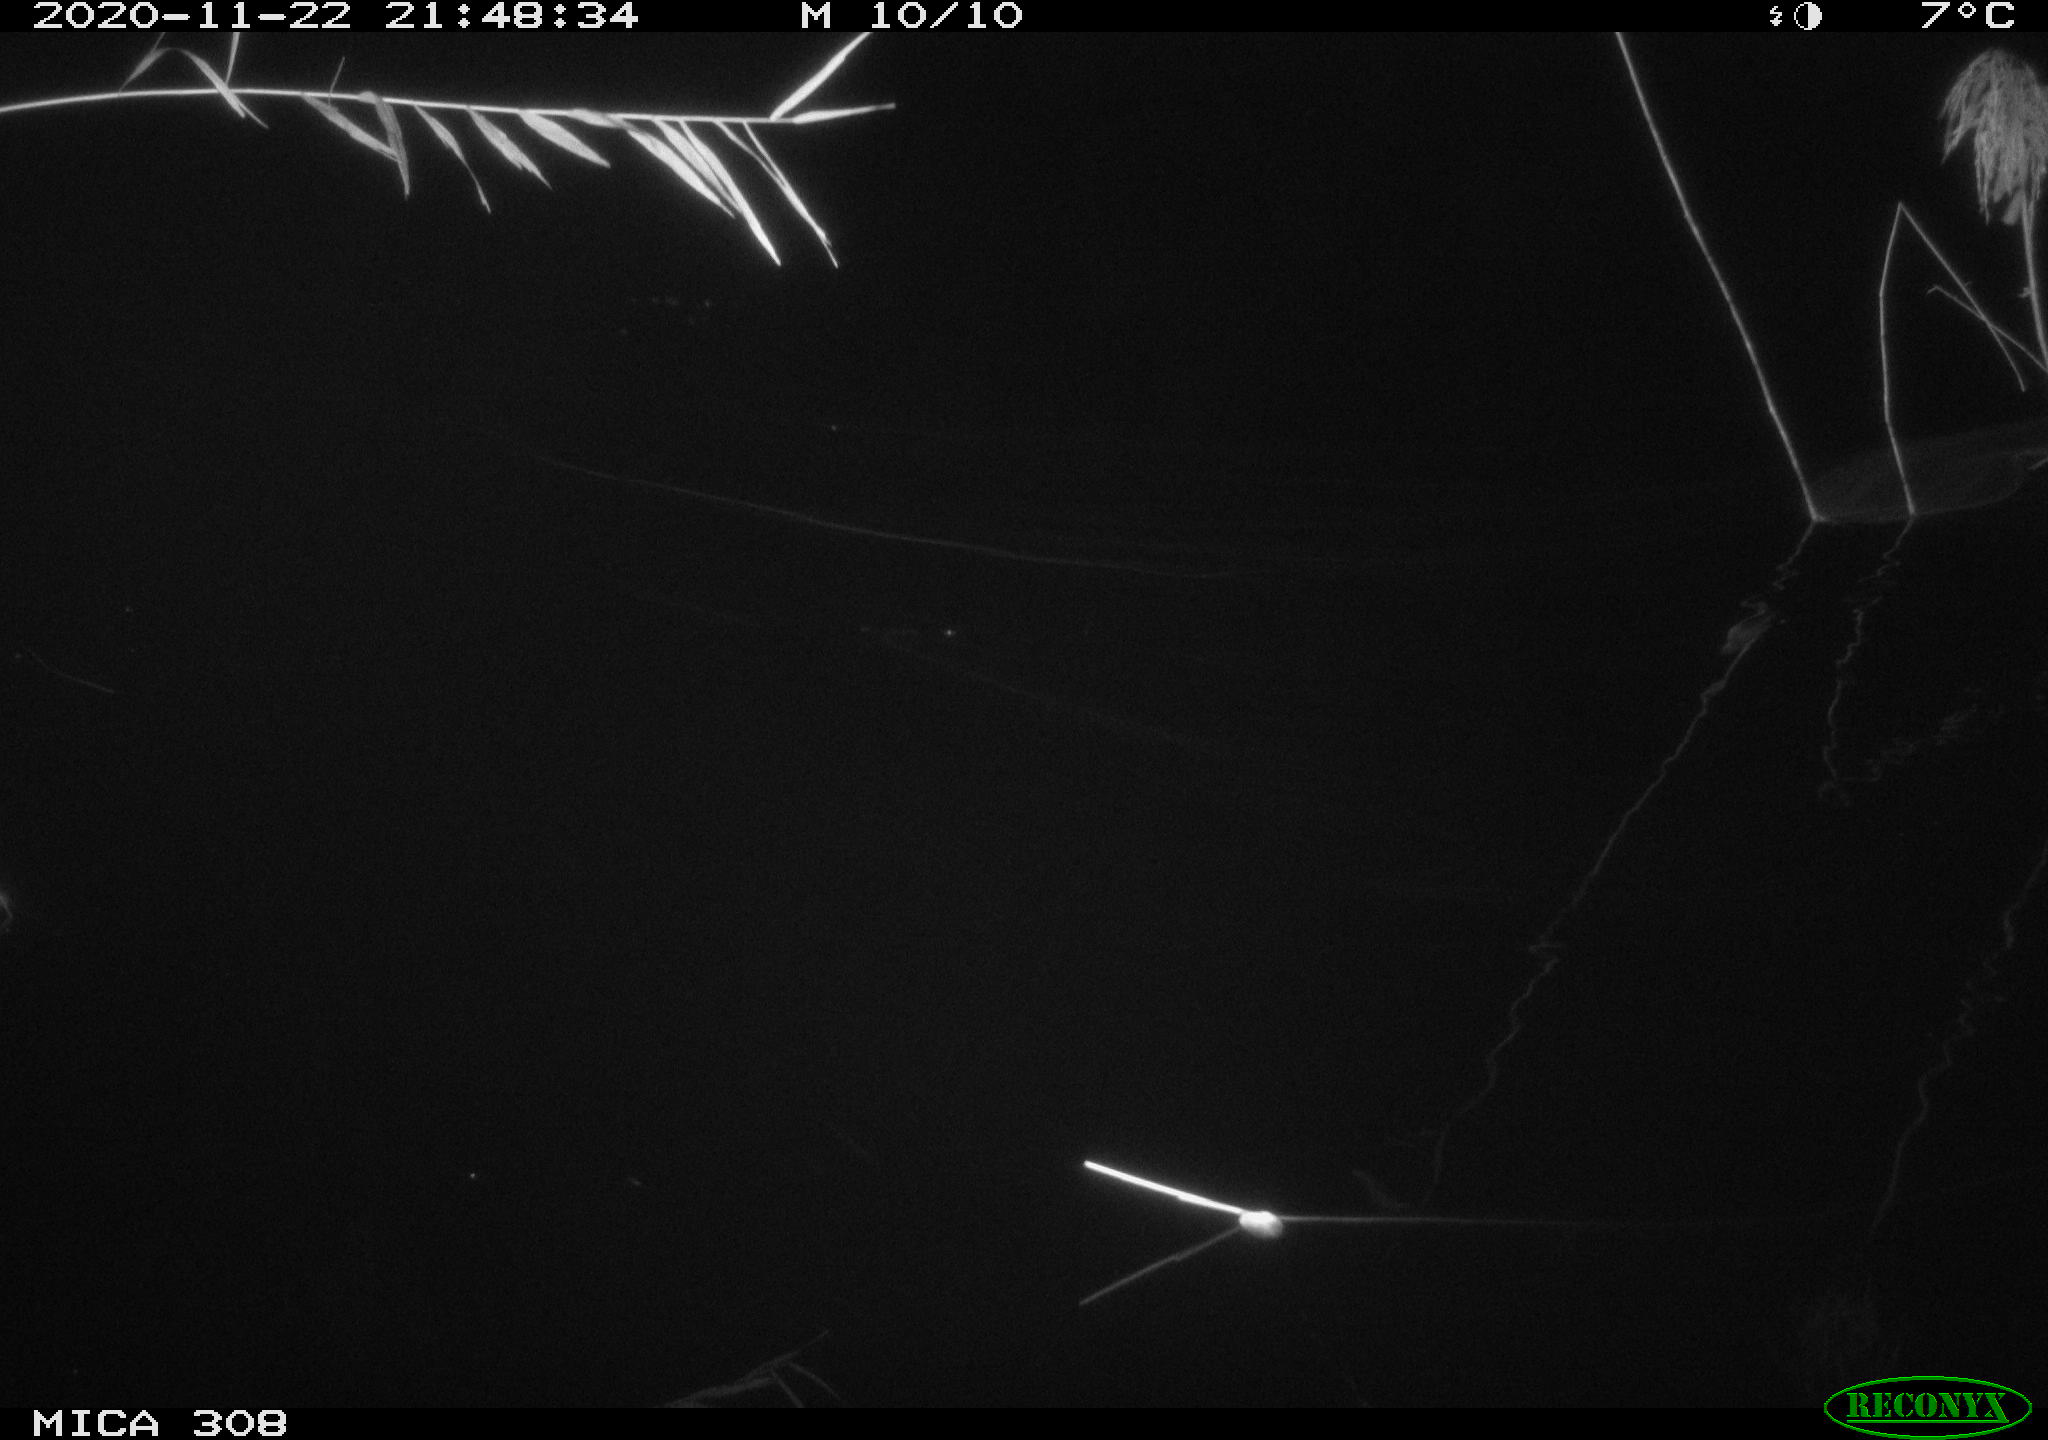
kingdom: Animalia
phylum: Chordata
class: Mammalia
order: Rodentia
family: Muridae
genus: Rattus
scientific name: Rattus norvegicus
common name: Brown rat
